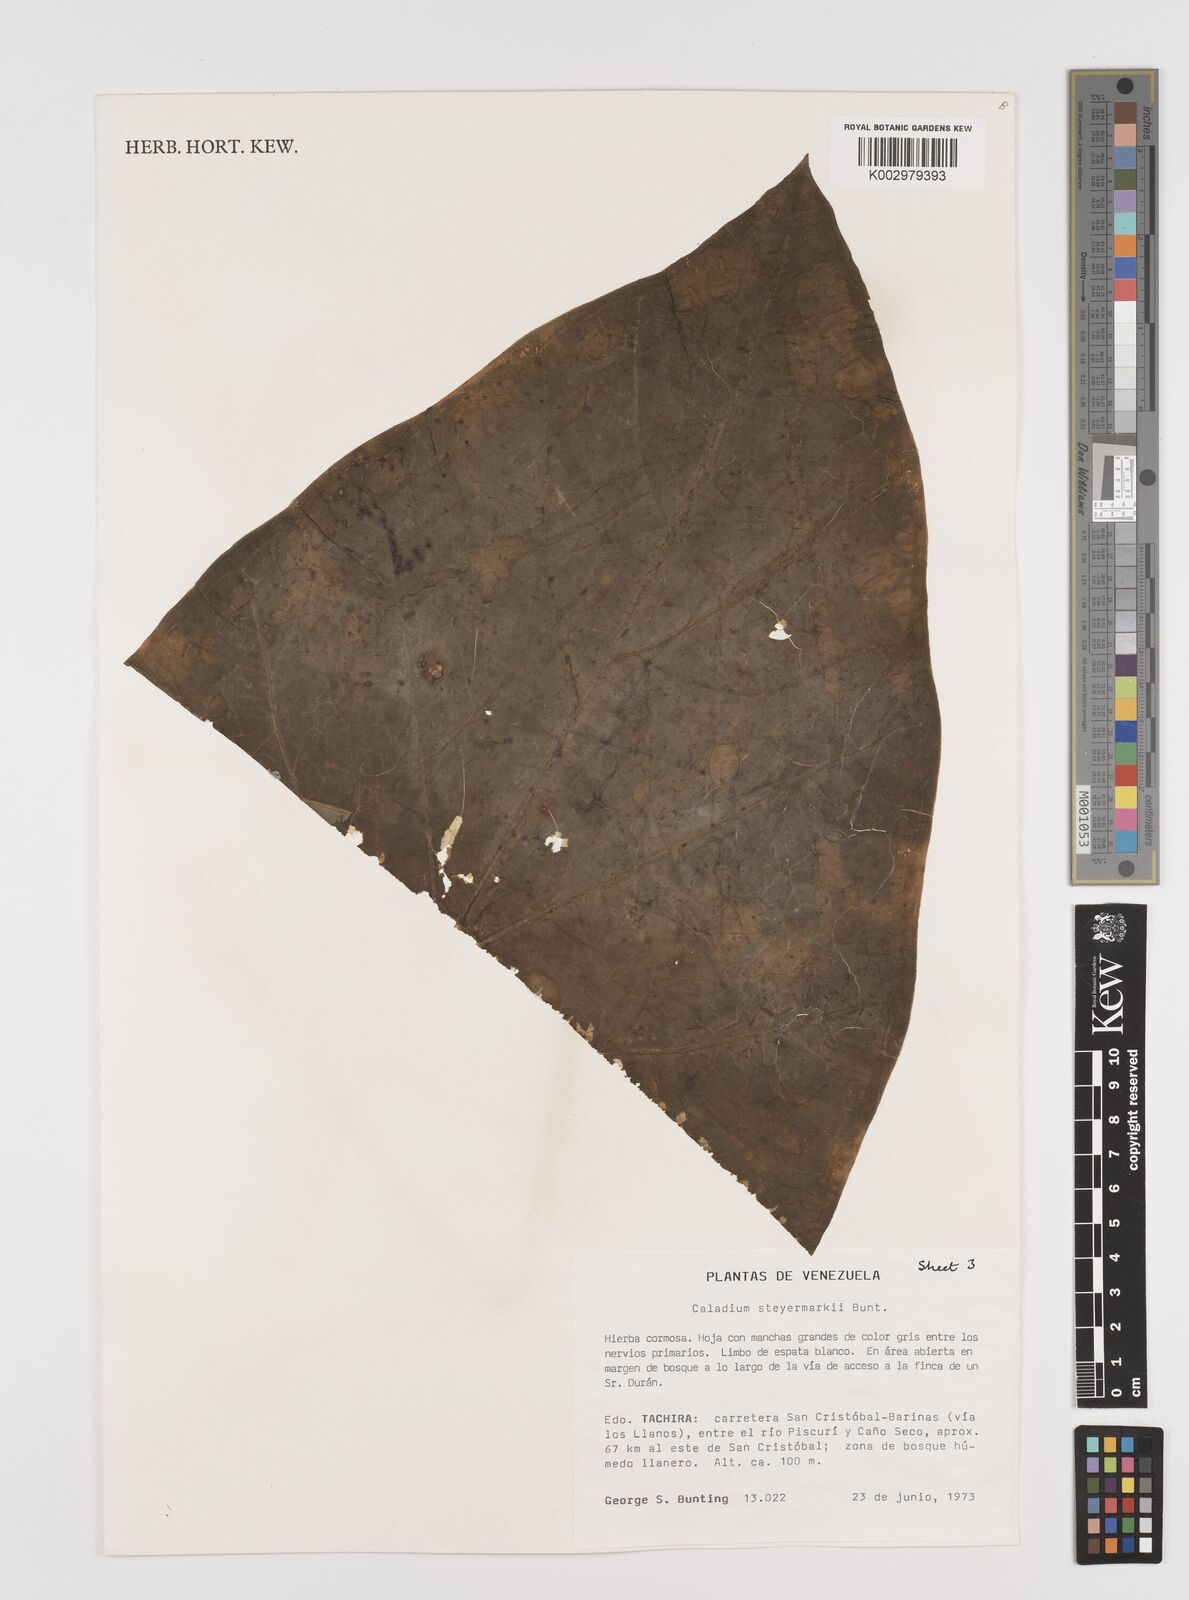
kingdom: Plantae
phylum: Tracheophyta
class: Liliopsida
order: Alismatales
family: Araceae
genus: Caladium
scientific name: Caladium steyermarkii
